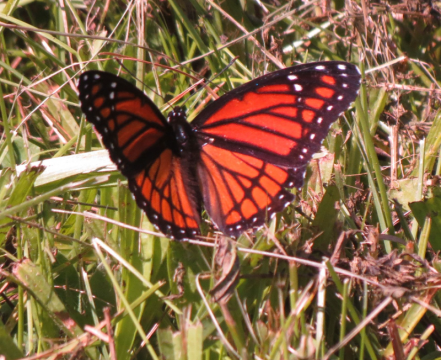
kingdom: Animalia
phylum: Arthropoda
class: Insecta
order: Lepidoptera
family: Nymphalidae
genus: Limenitis
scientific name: Limenitis archippus
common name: Viceroy
